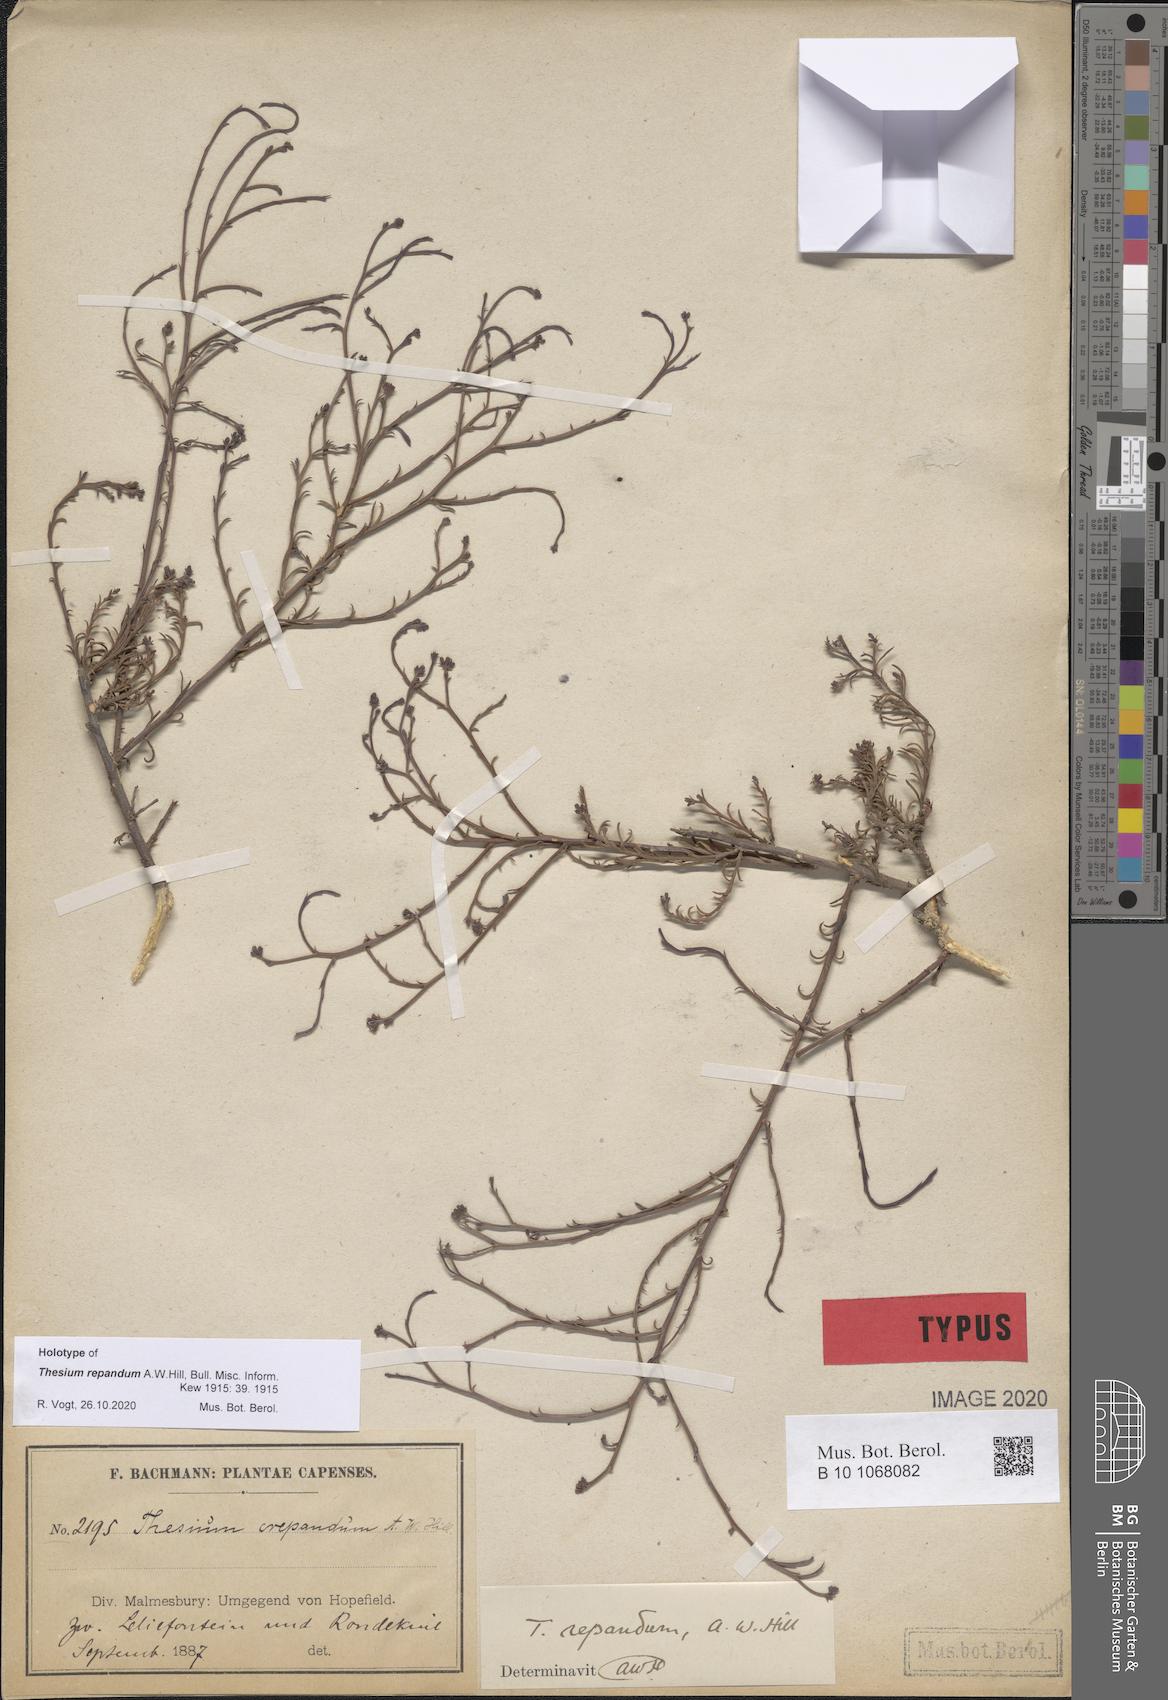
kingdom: Plantae
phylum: Tracheophyta
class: Magnoliopsida
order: Santalales
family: Thesiaceae
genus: Thesium
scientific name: Thesium repandum
